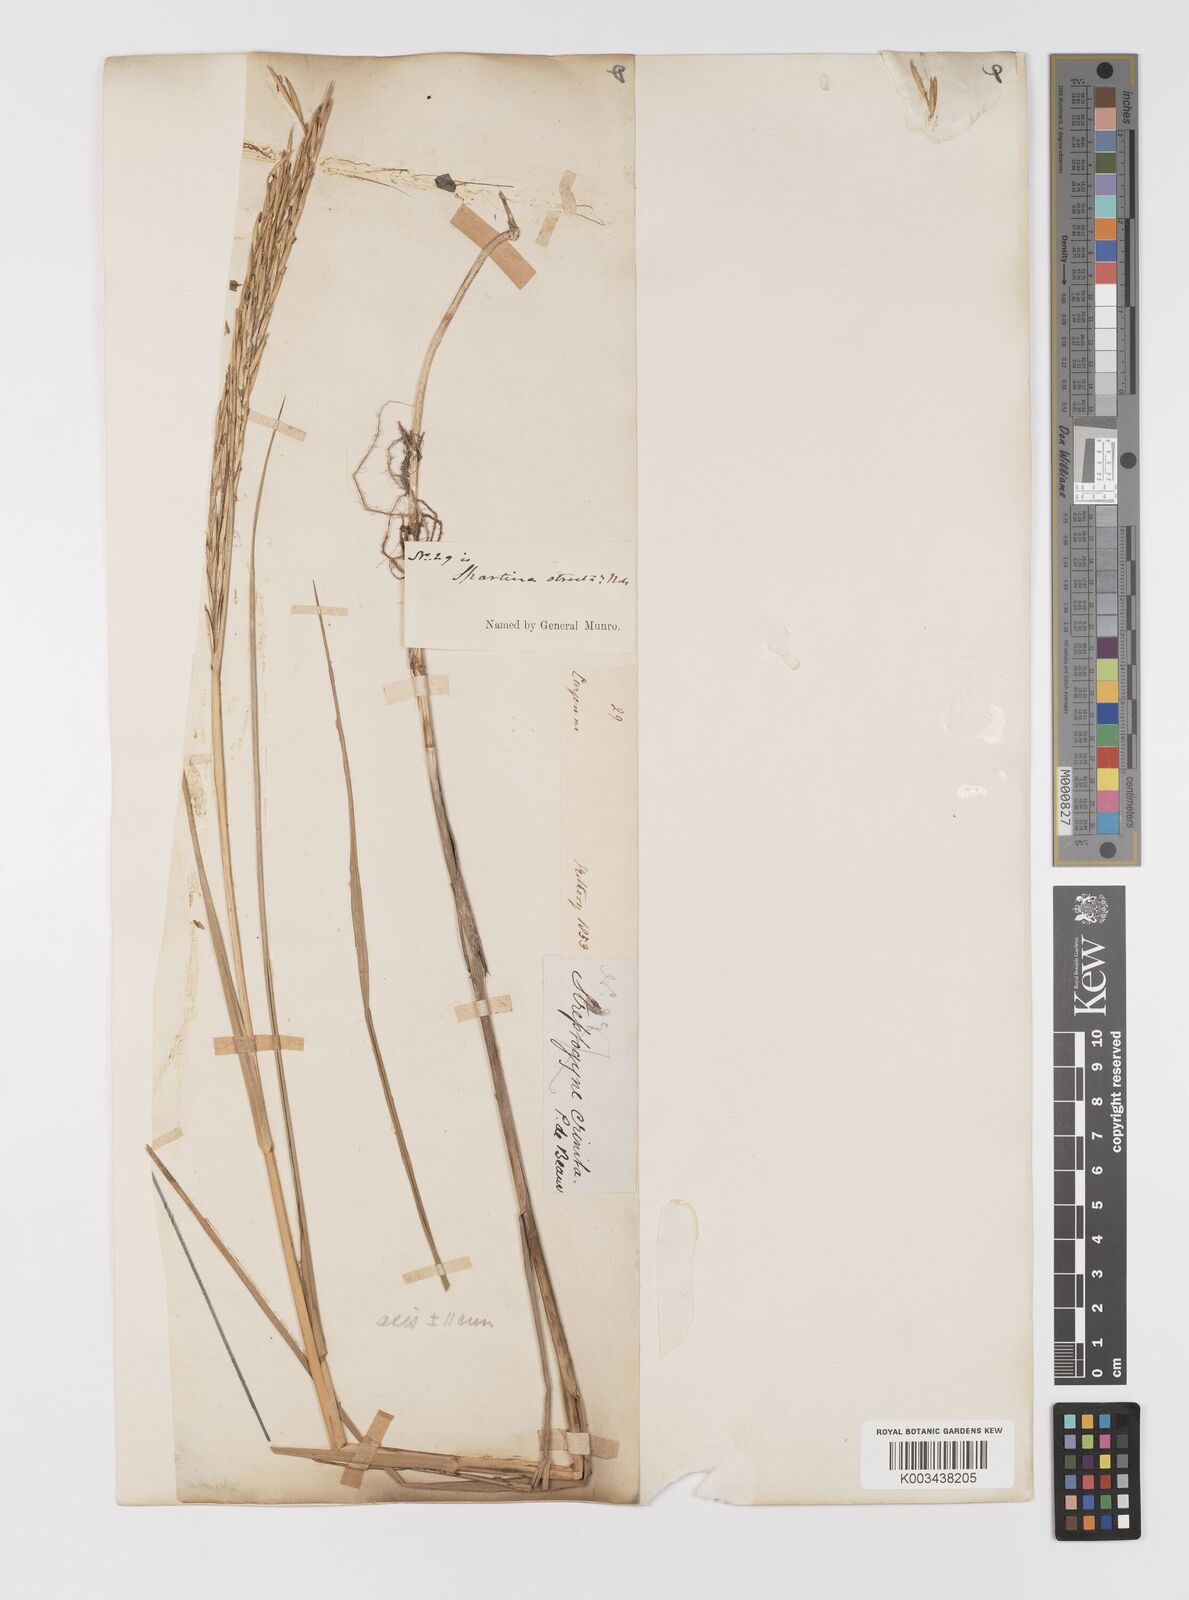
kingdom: Plantae
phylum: Tracheophyta
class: Liliopsida
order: Poales
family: Poaceae
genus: Sporobolus
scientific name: Sporobolus alterniflorus
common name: Atlantic cordgrass
